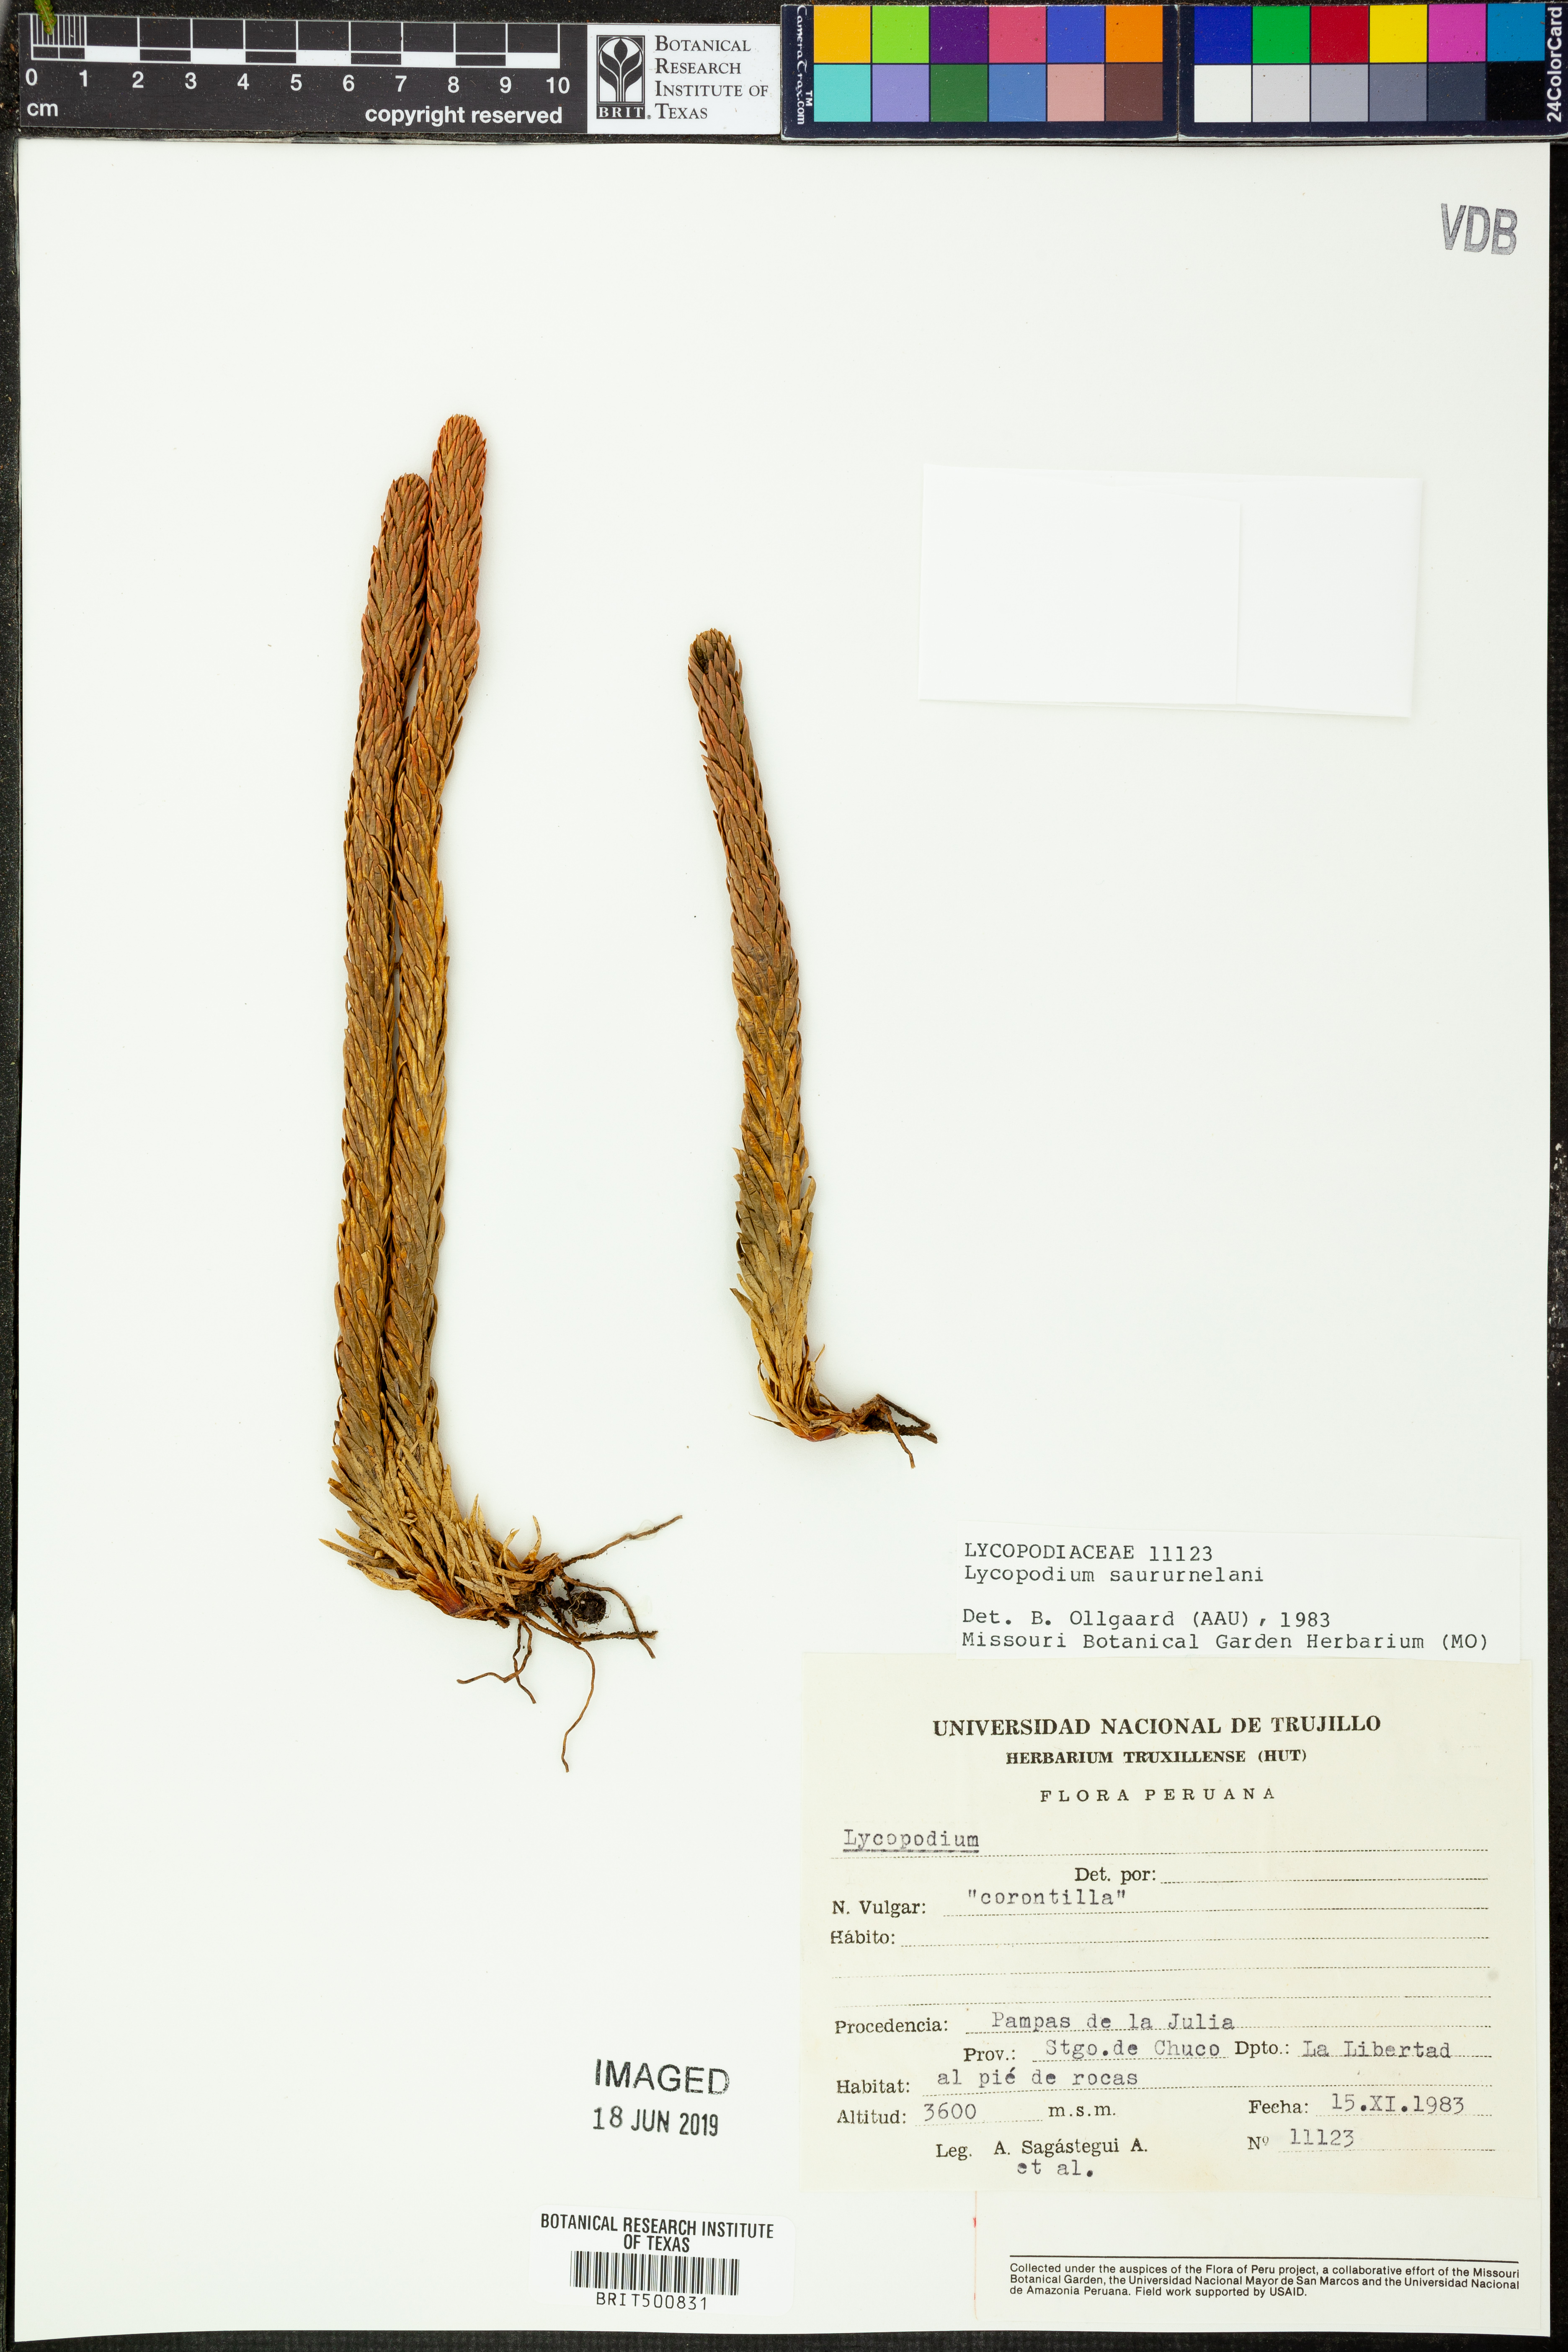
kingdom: Plantae
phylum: Tracheophyta
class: Lycopodiopsida
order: Lycopodiales
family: Lycopodiaceae
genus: Lycopodium
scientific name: Lycopodium
